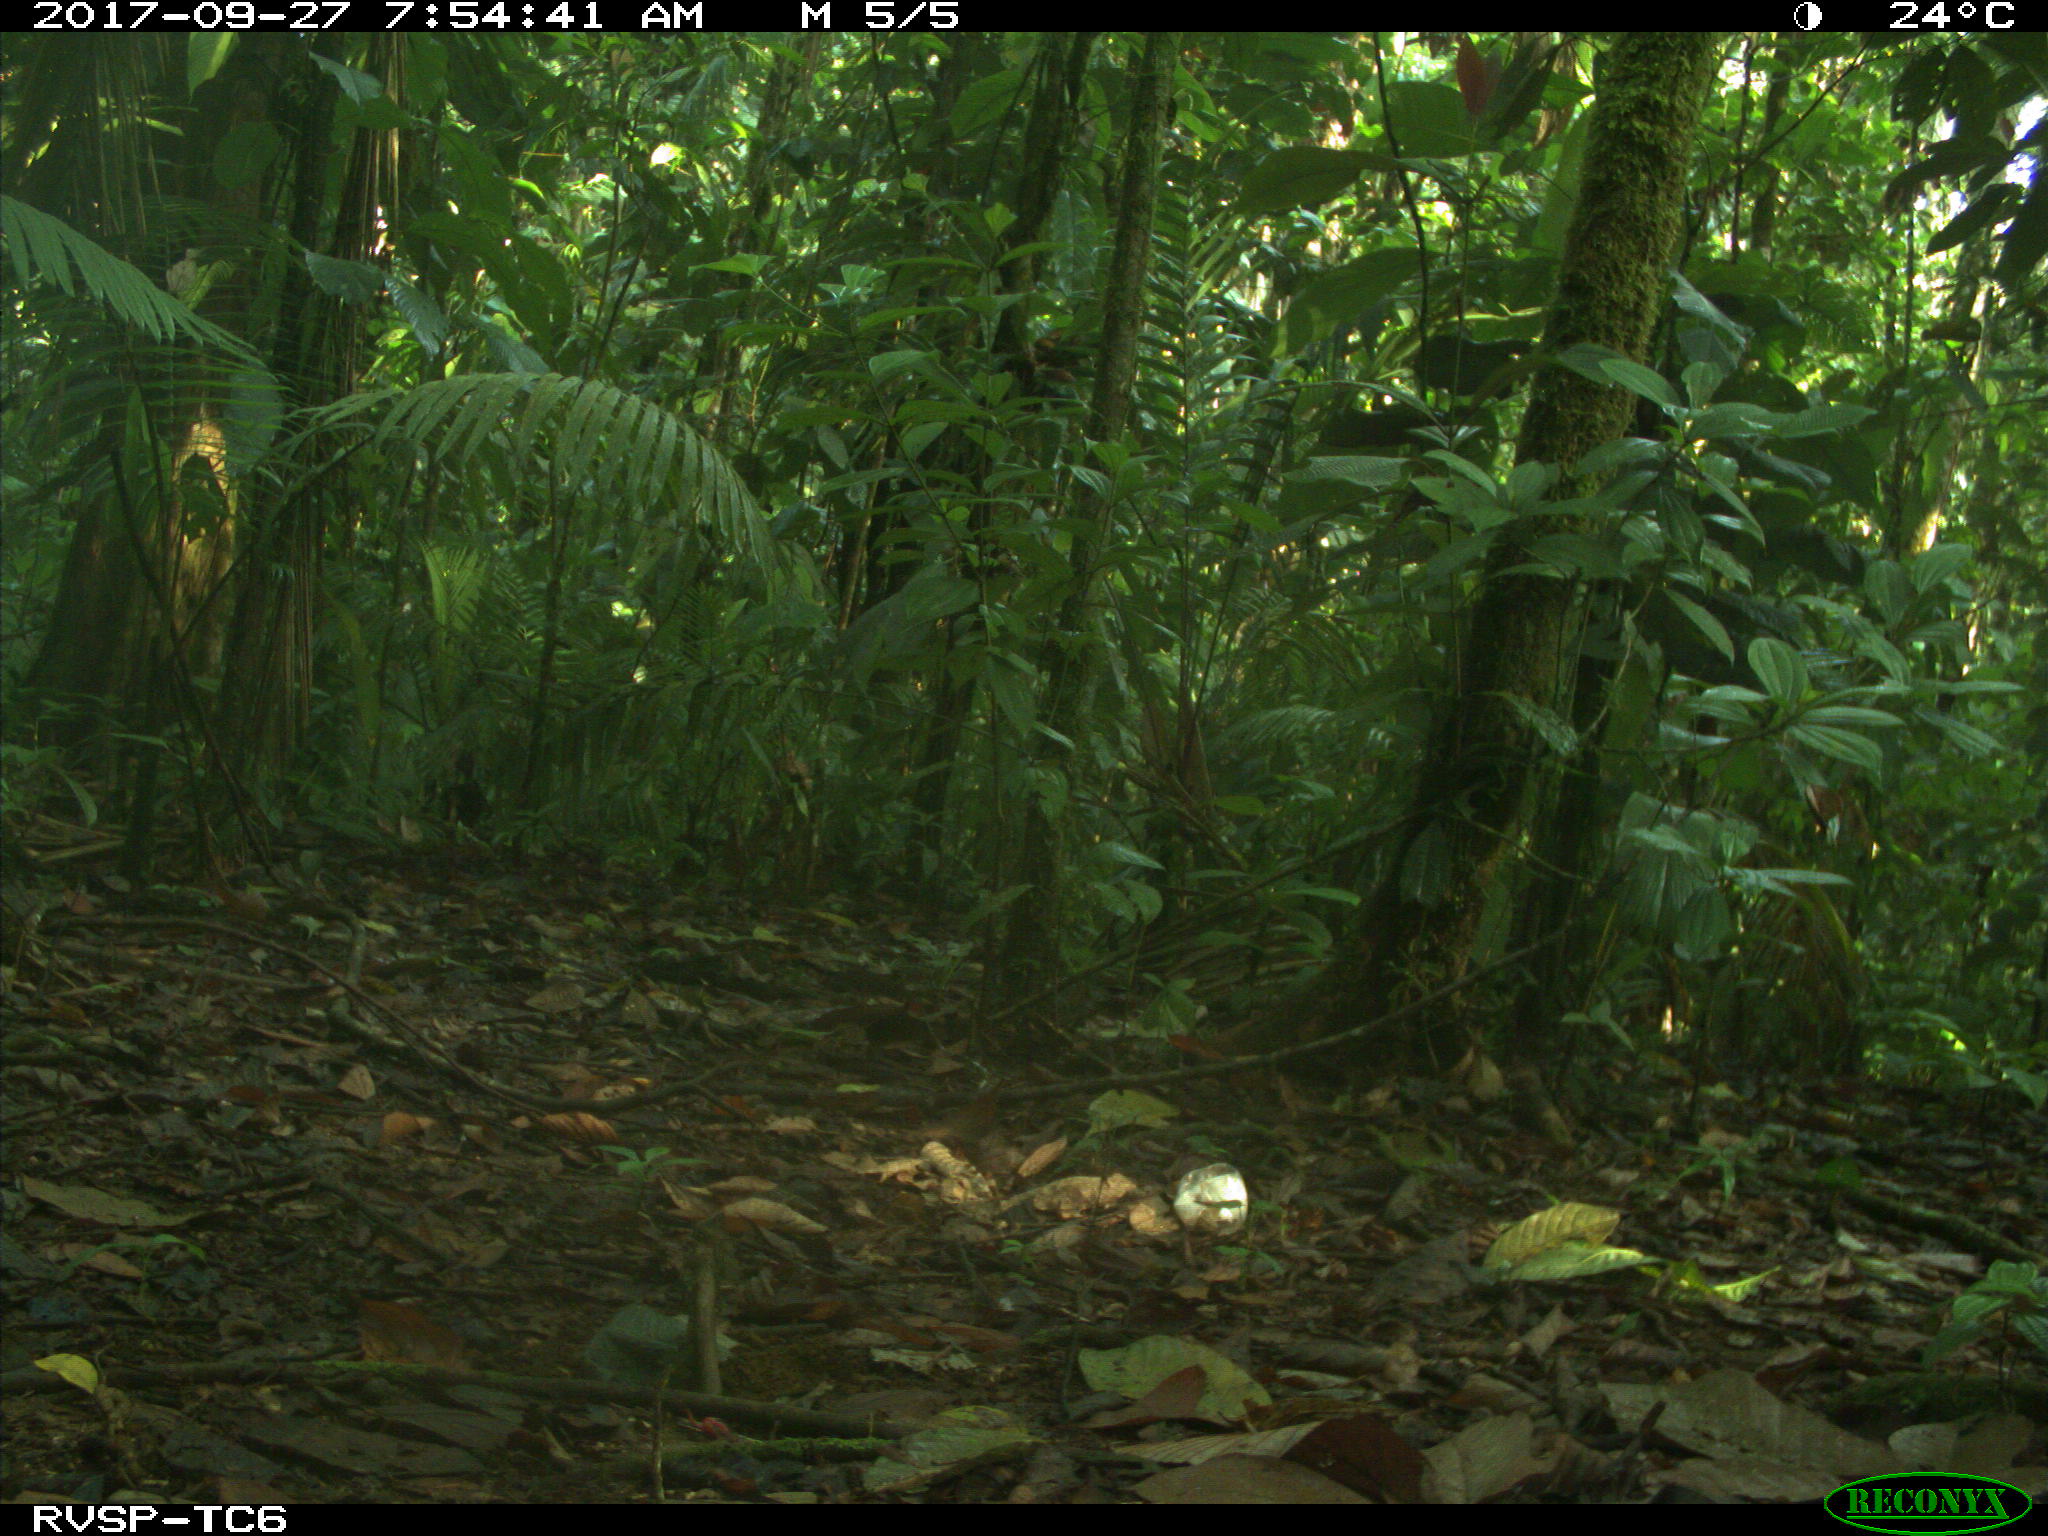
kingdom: Animalia
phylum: Chordata
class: Mammalia
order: Rodentia
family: Dasyproctidae
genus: Dasyprocta
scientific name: Dasyprocta punctata
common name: Central american agouti
